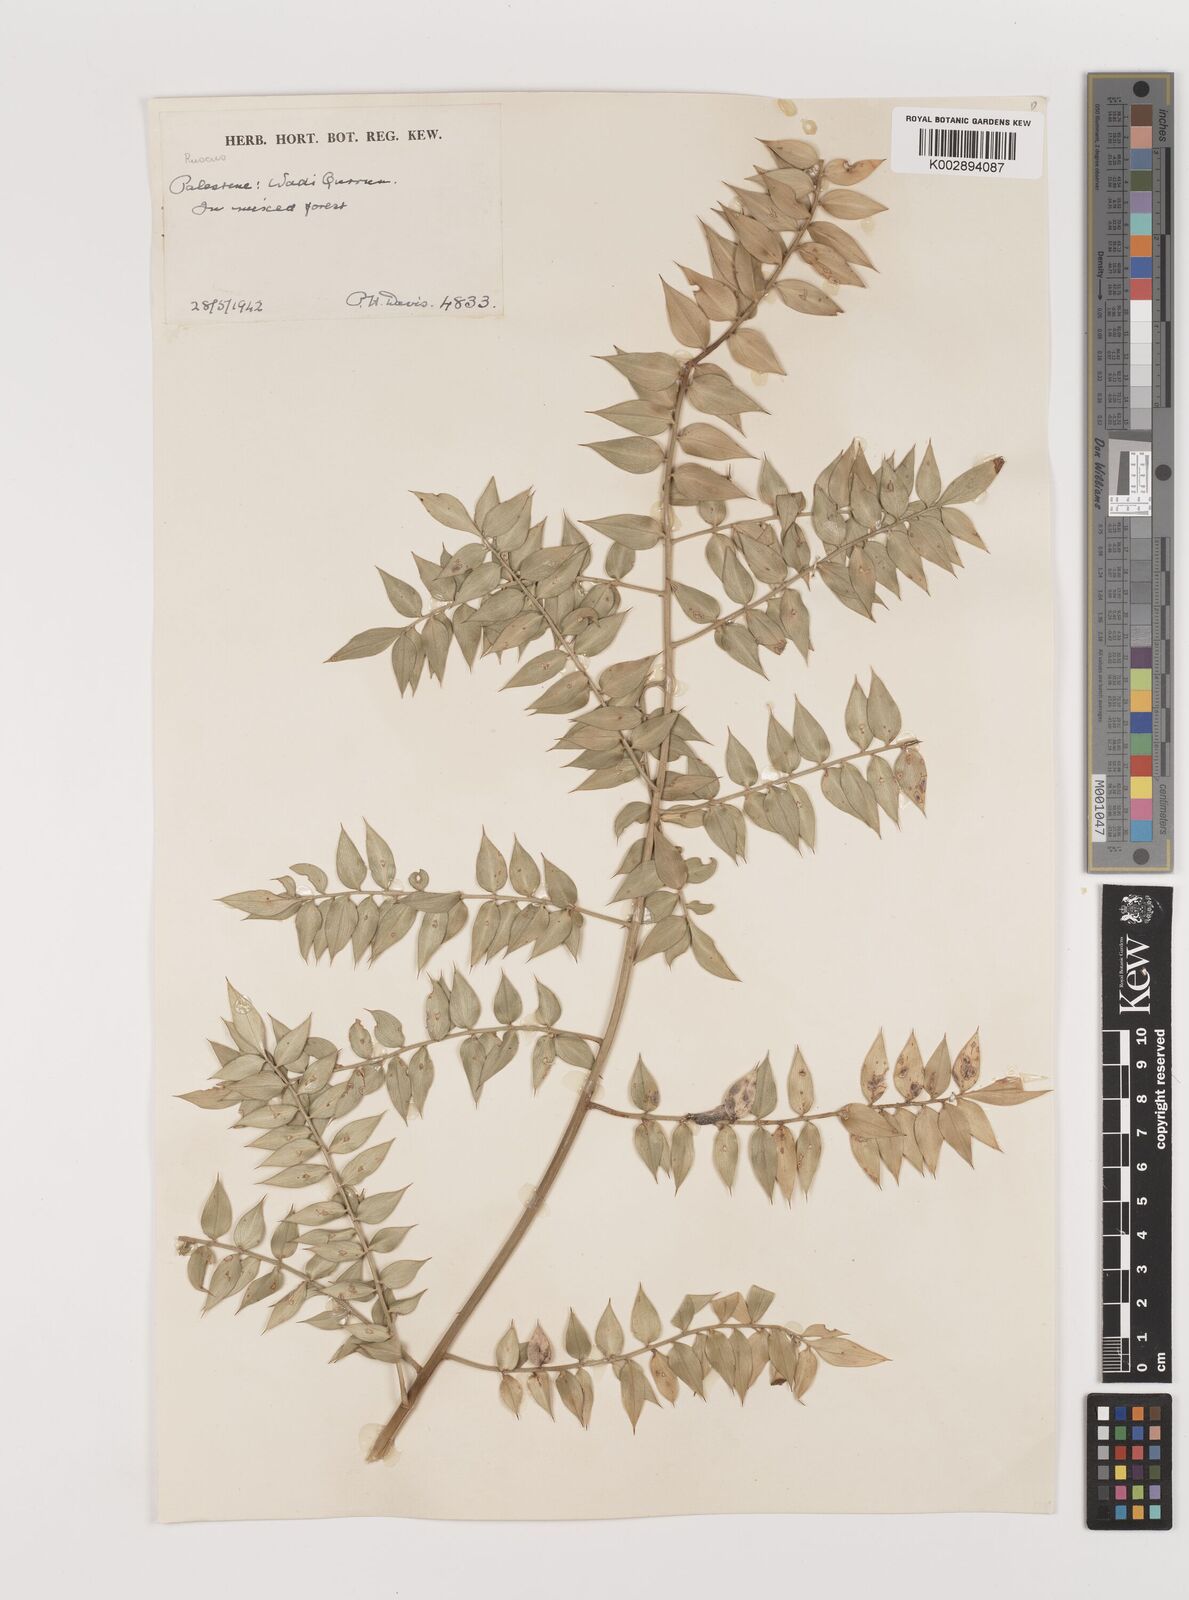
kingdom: Plantae
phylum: Tracheophyta
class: Liliopsida
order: Asparagales
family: Asparagaceae
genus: Ruscus
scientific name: Ruscus aculeatus
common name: Butcher's-broom
